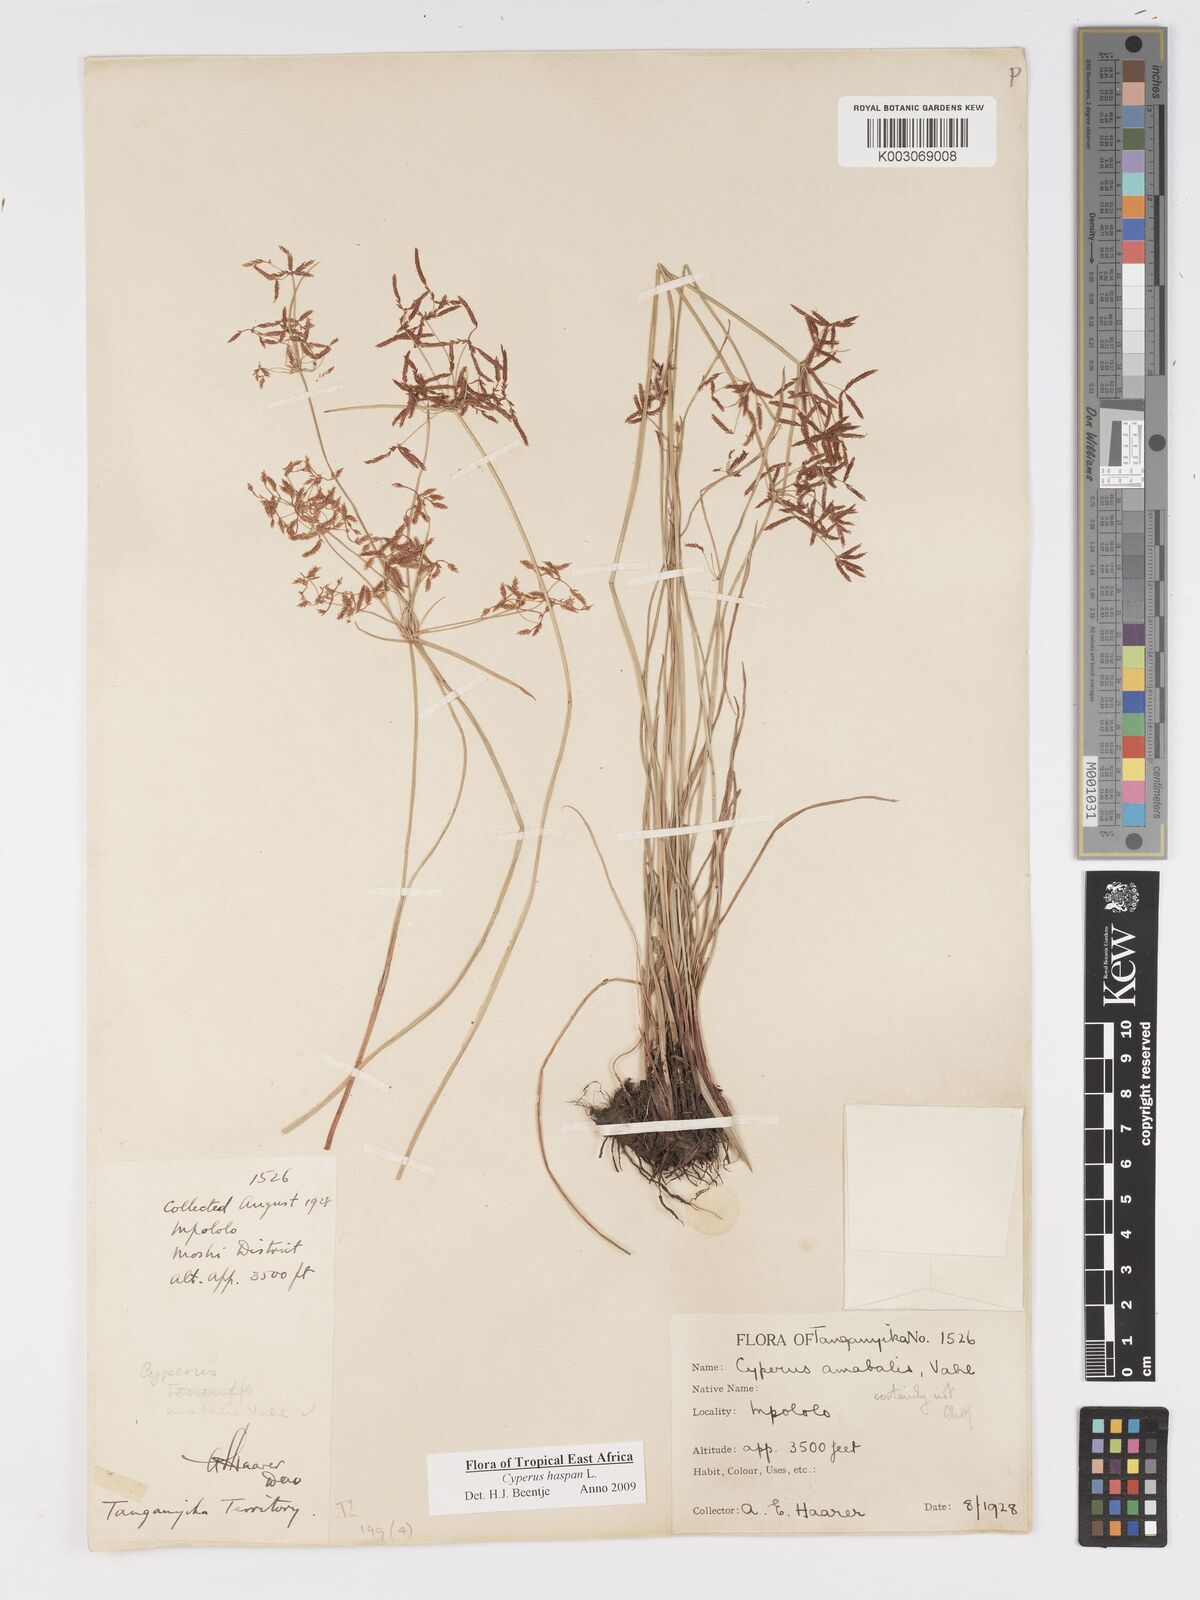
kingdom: Plantae
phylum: Tracheophyta
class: Liliopsida
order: Poales
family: Cyperaceae
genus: Cyperus
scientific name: Cyperus platycaulis
